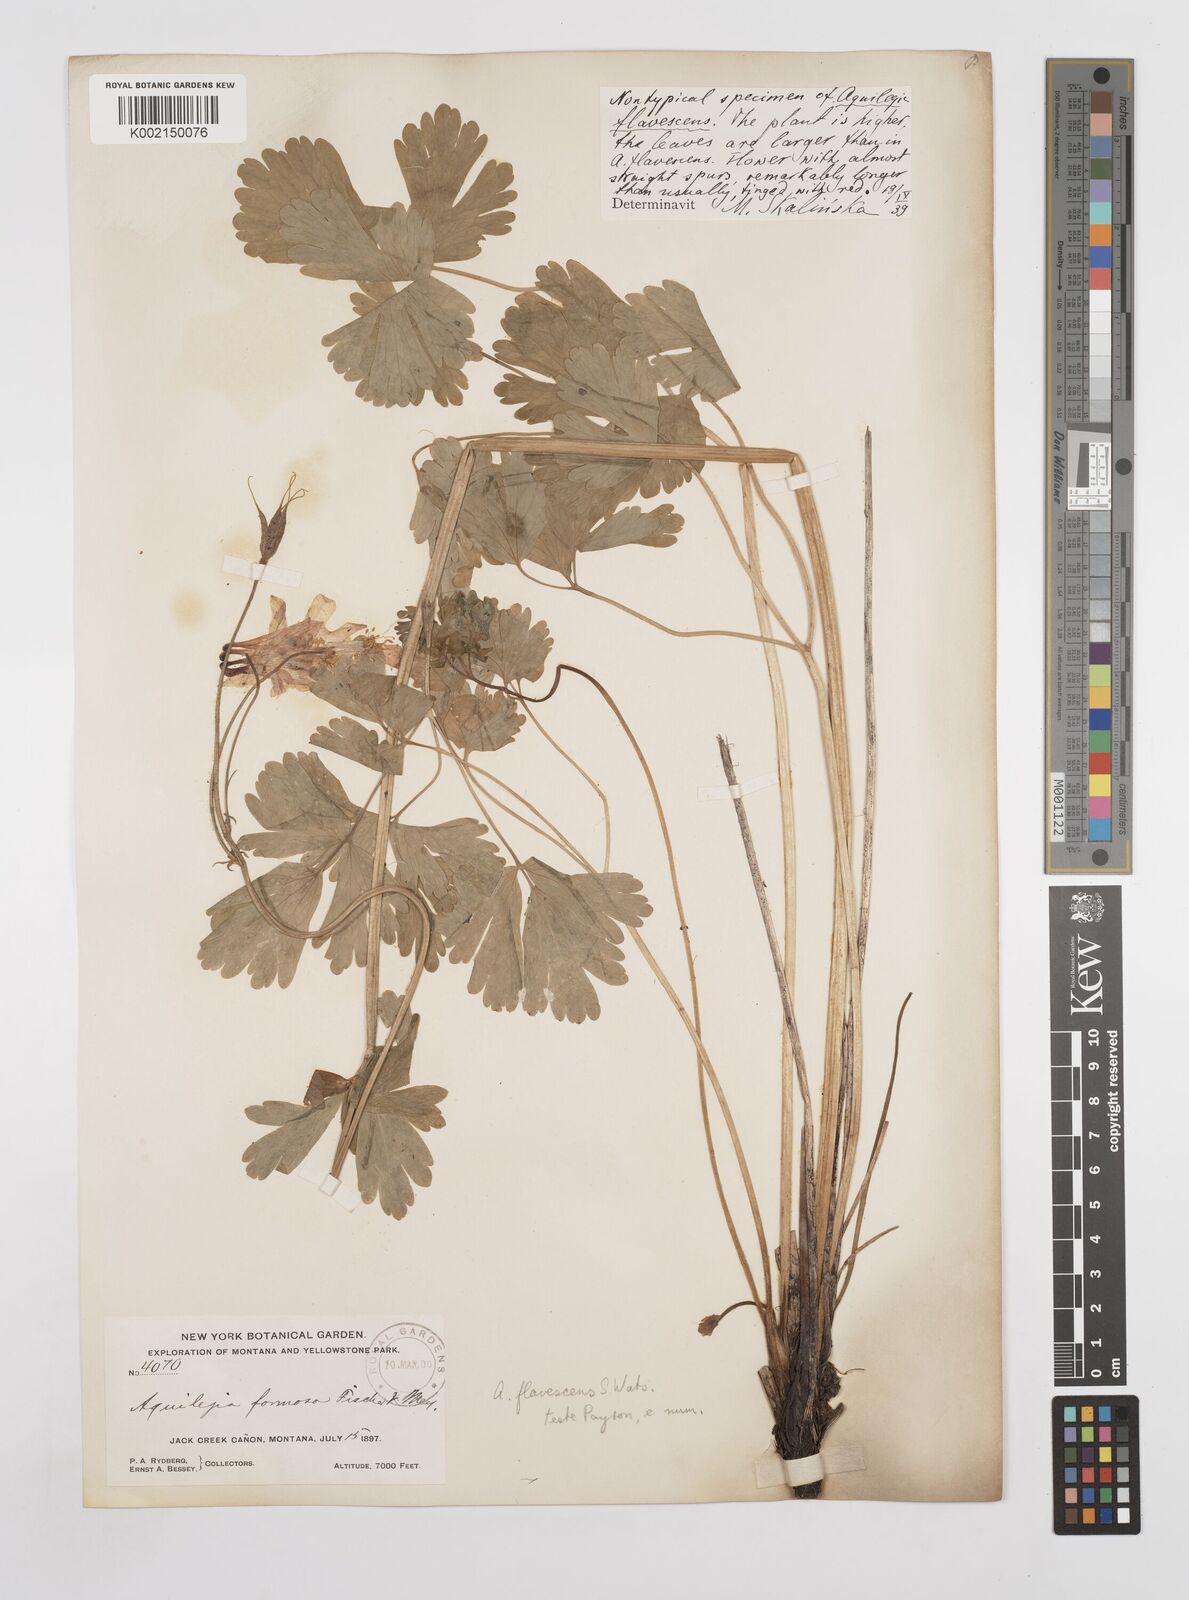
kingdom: Plantae
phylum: Tracheophyta
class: Magnoliopsida
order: Ranunculales
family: Ranunculaceae
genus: Aquilegia
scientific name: Aquilegia flavescens
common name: Yellow columbine
